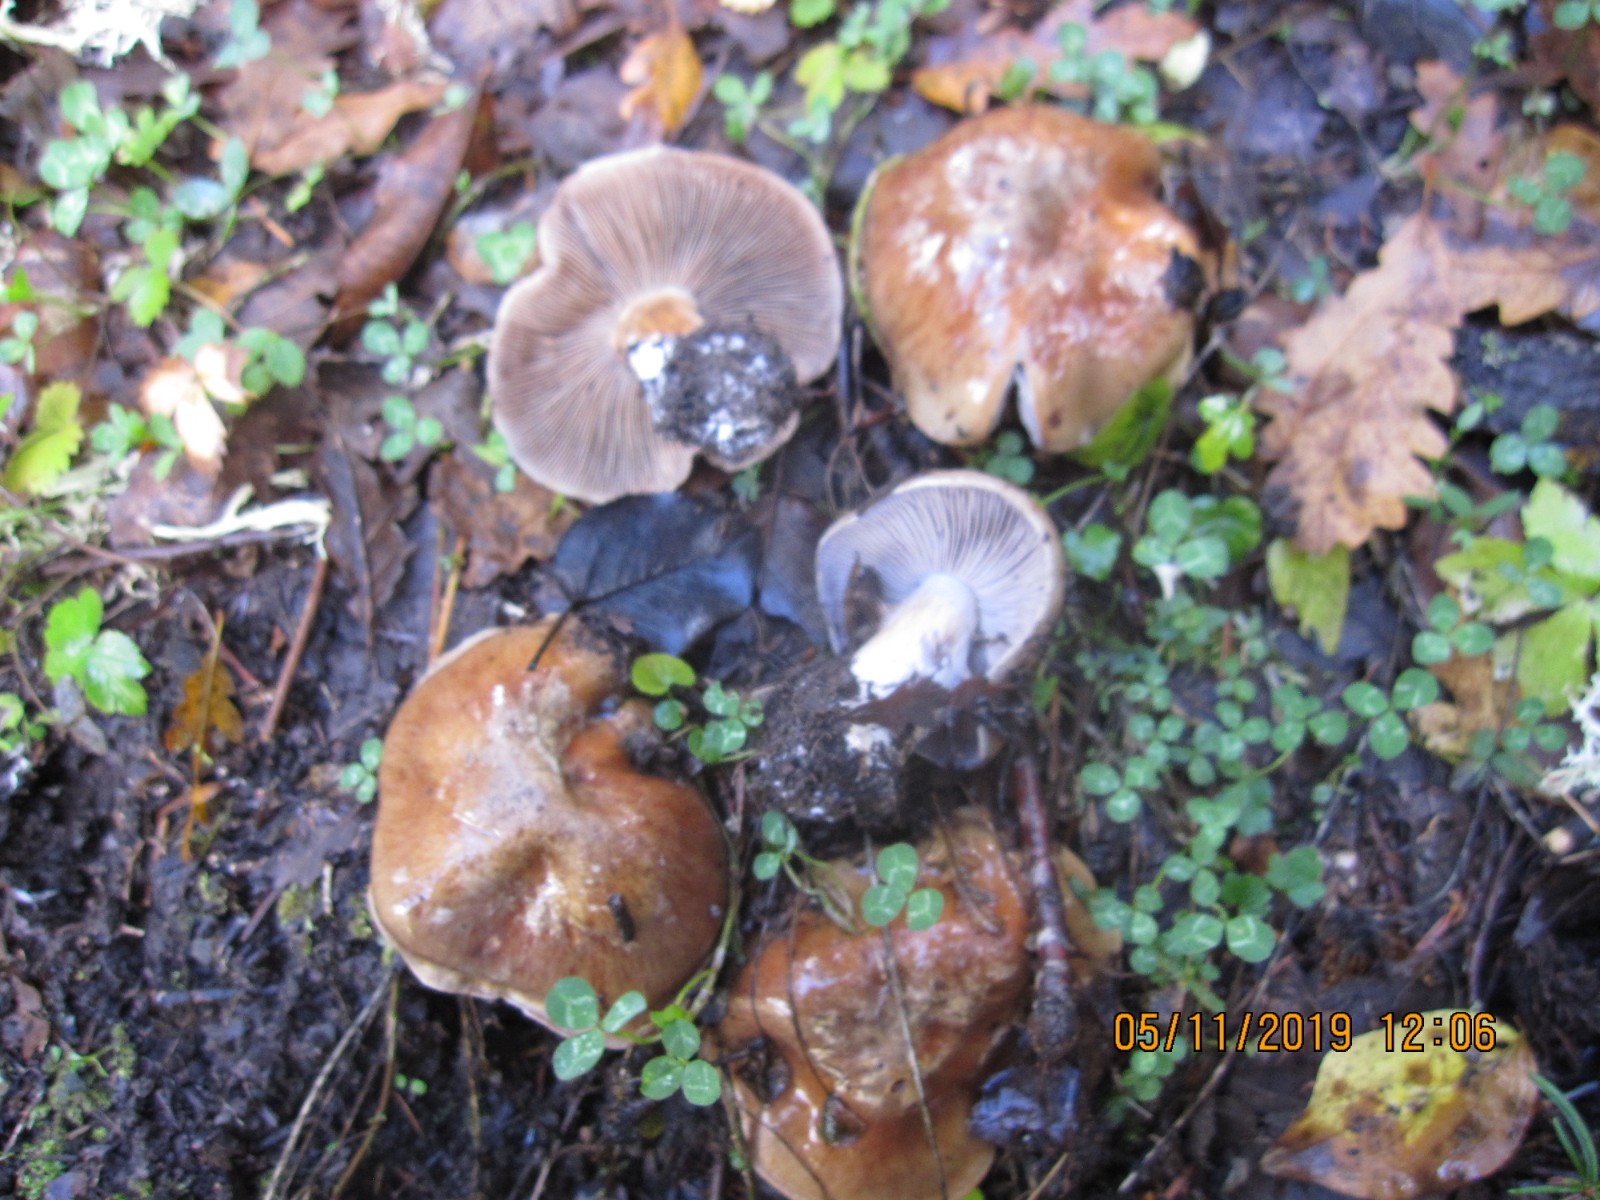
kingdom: Fungi
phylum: Basidiomycota
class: Agaricomycetes
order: Agaricales
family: Cortinariaceae
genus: Cortinarius
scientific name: Cortinarius
